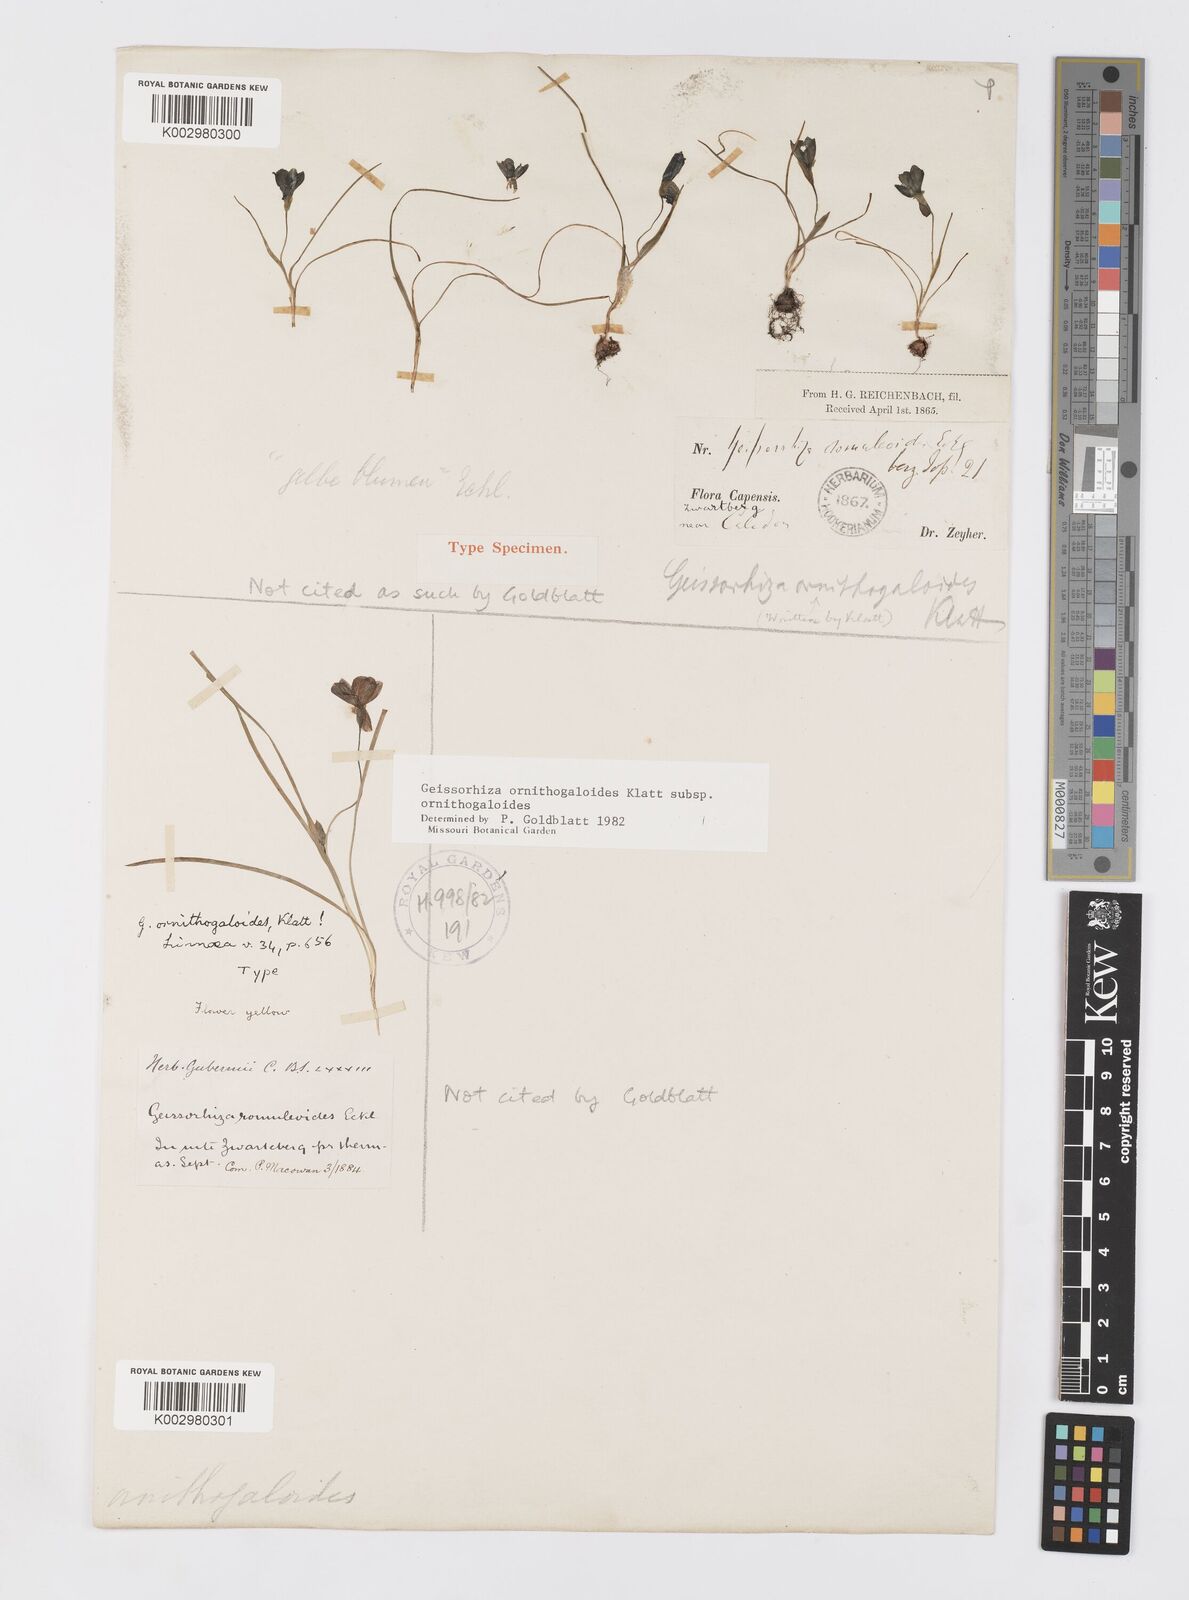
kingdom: Plantae
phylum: Tracheophyta
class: Liliopsida
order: Asparagales
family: Iridaceae
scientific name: Iridaceae
